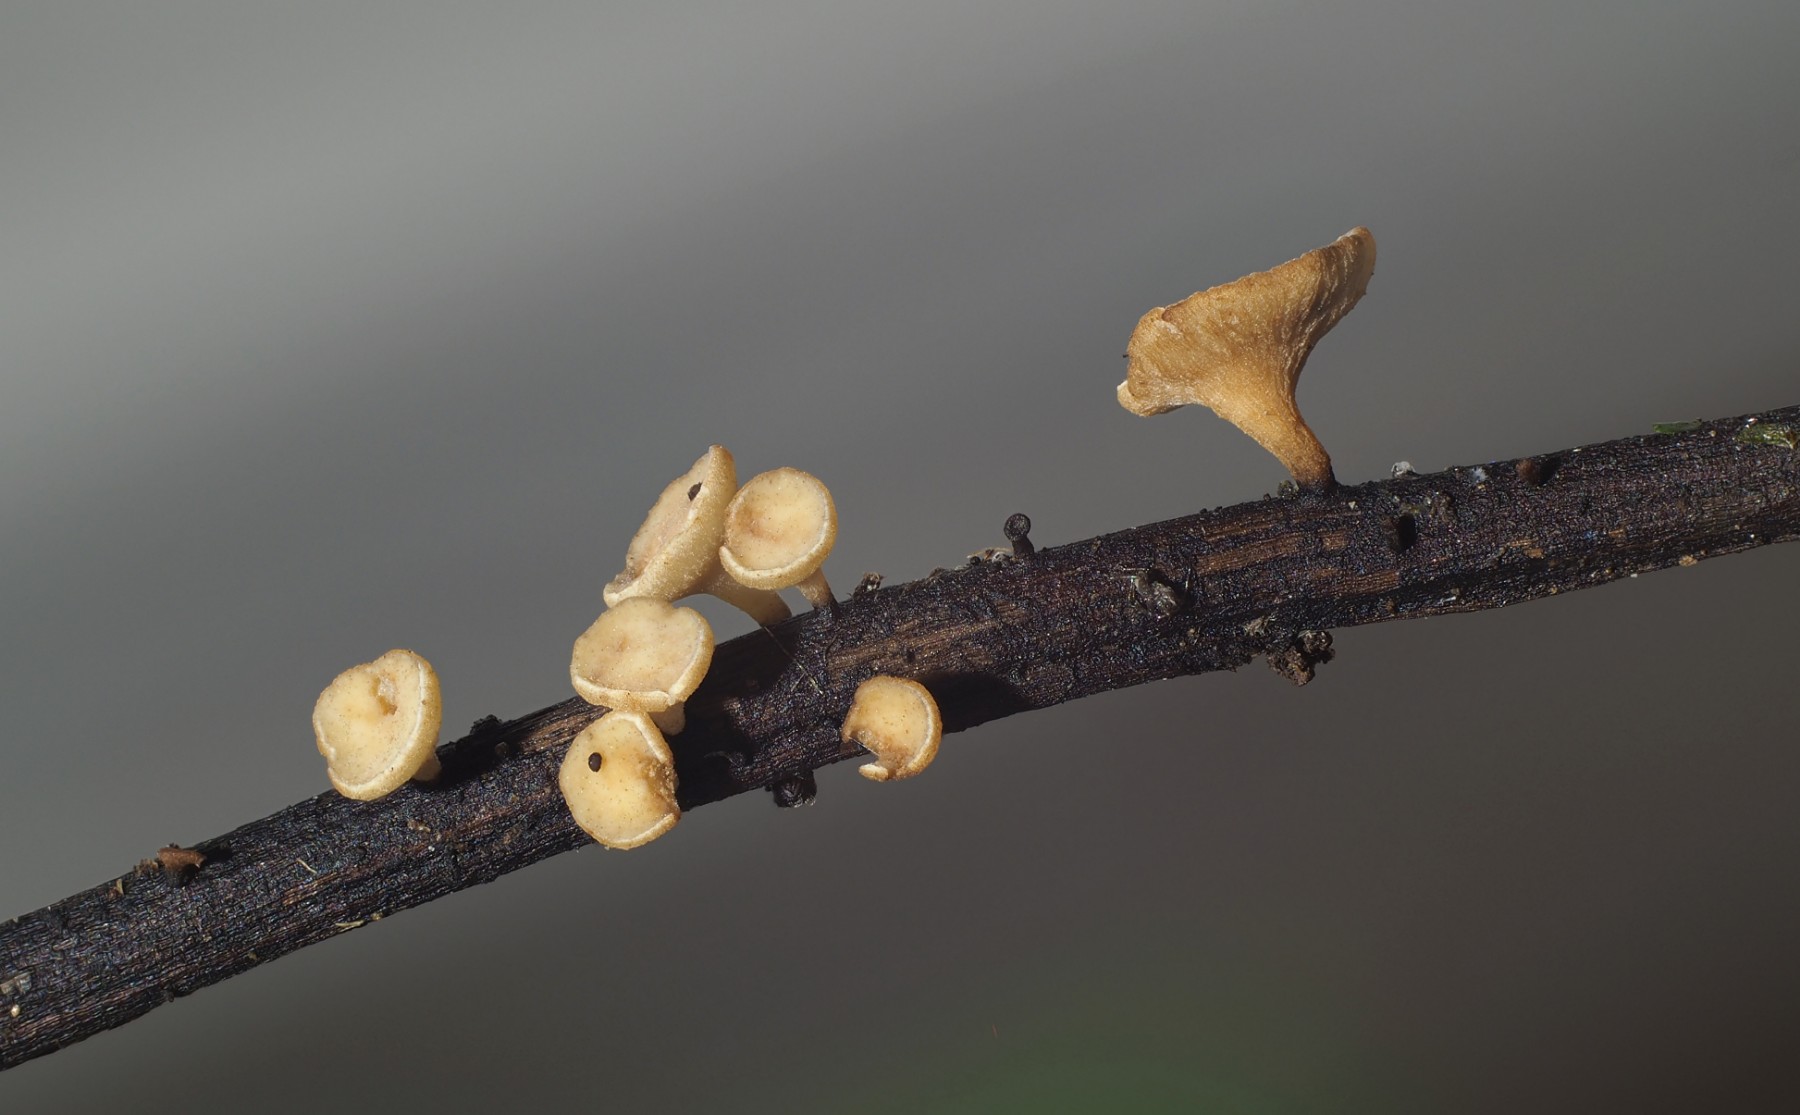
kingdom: Fungi
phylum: Ascomycota
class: Leotiomycetes
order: Helotiales
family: Helotiaceae
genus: Hymenoscyphus
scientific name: Hymenoscyphus fraxineus
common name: asketoptørre-stilkskive
